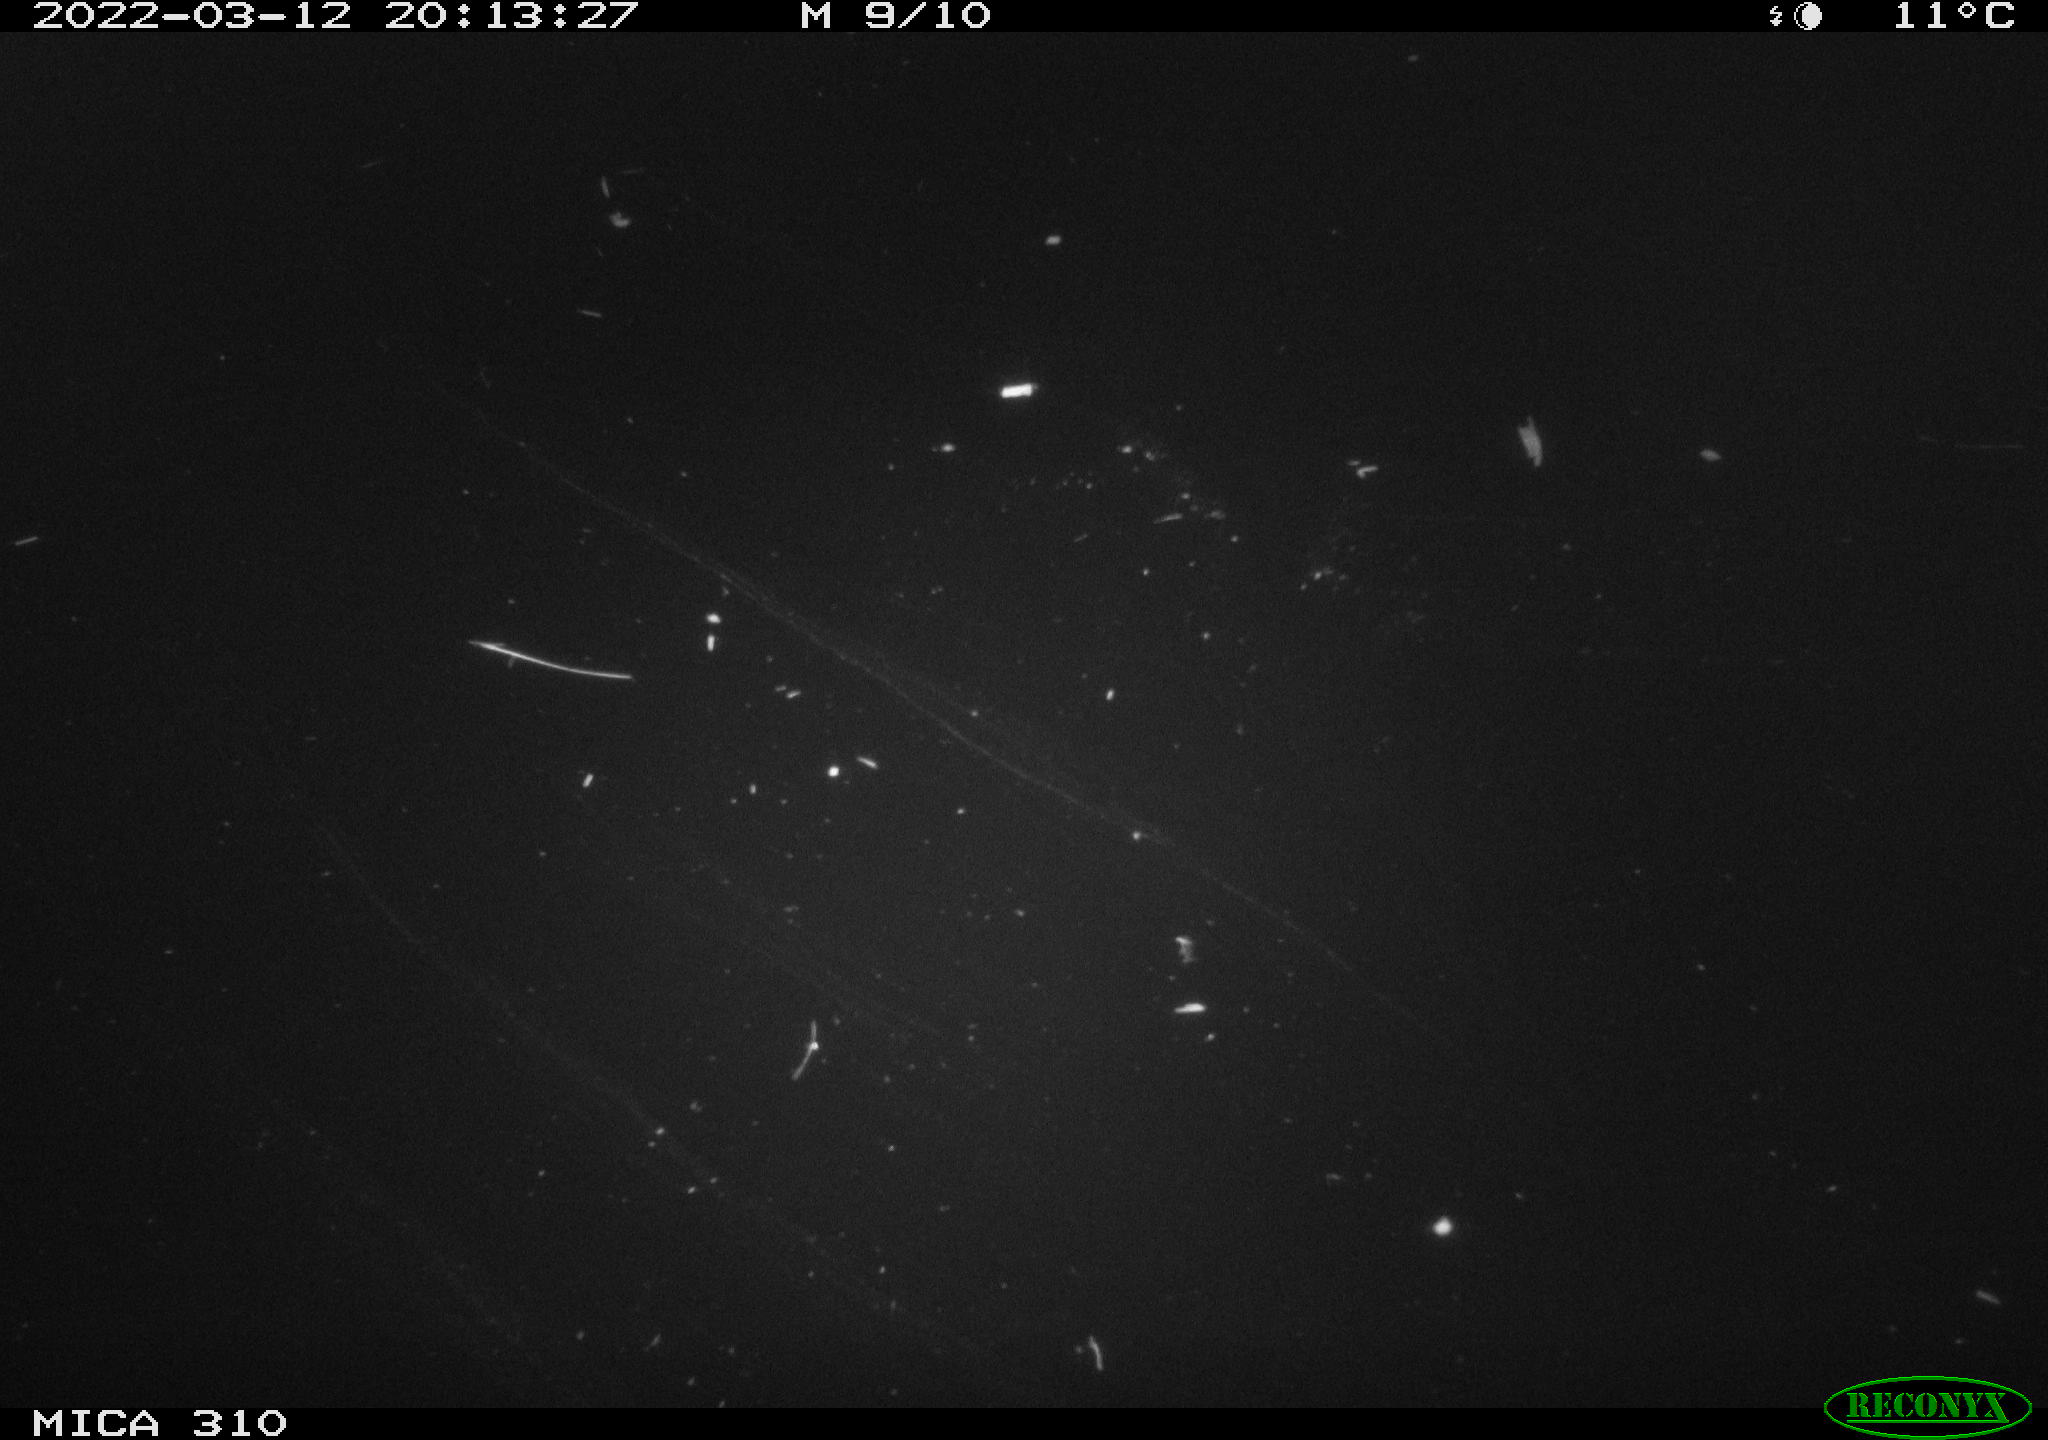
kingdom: Animalia
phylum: Chordata
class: Mammalia
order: Rodentia
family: Cricetidae
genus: Ondatra
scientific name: Ondatra zibethicus
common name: Muskrat
